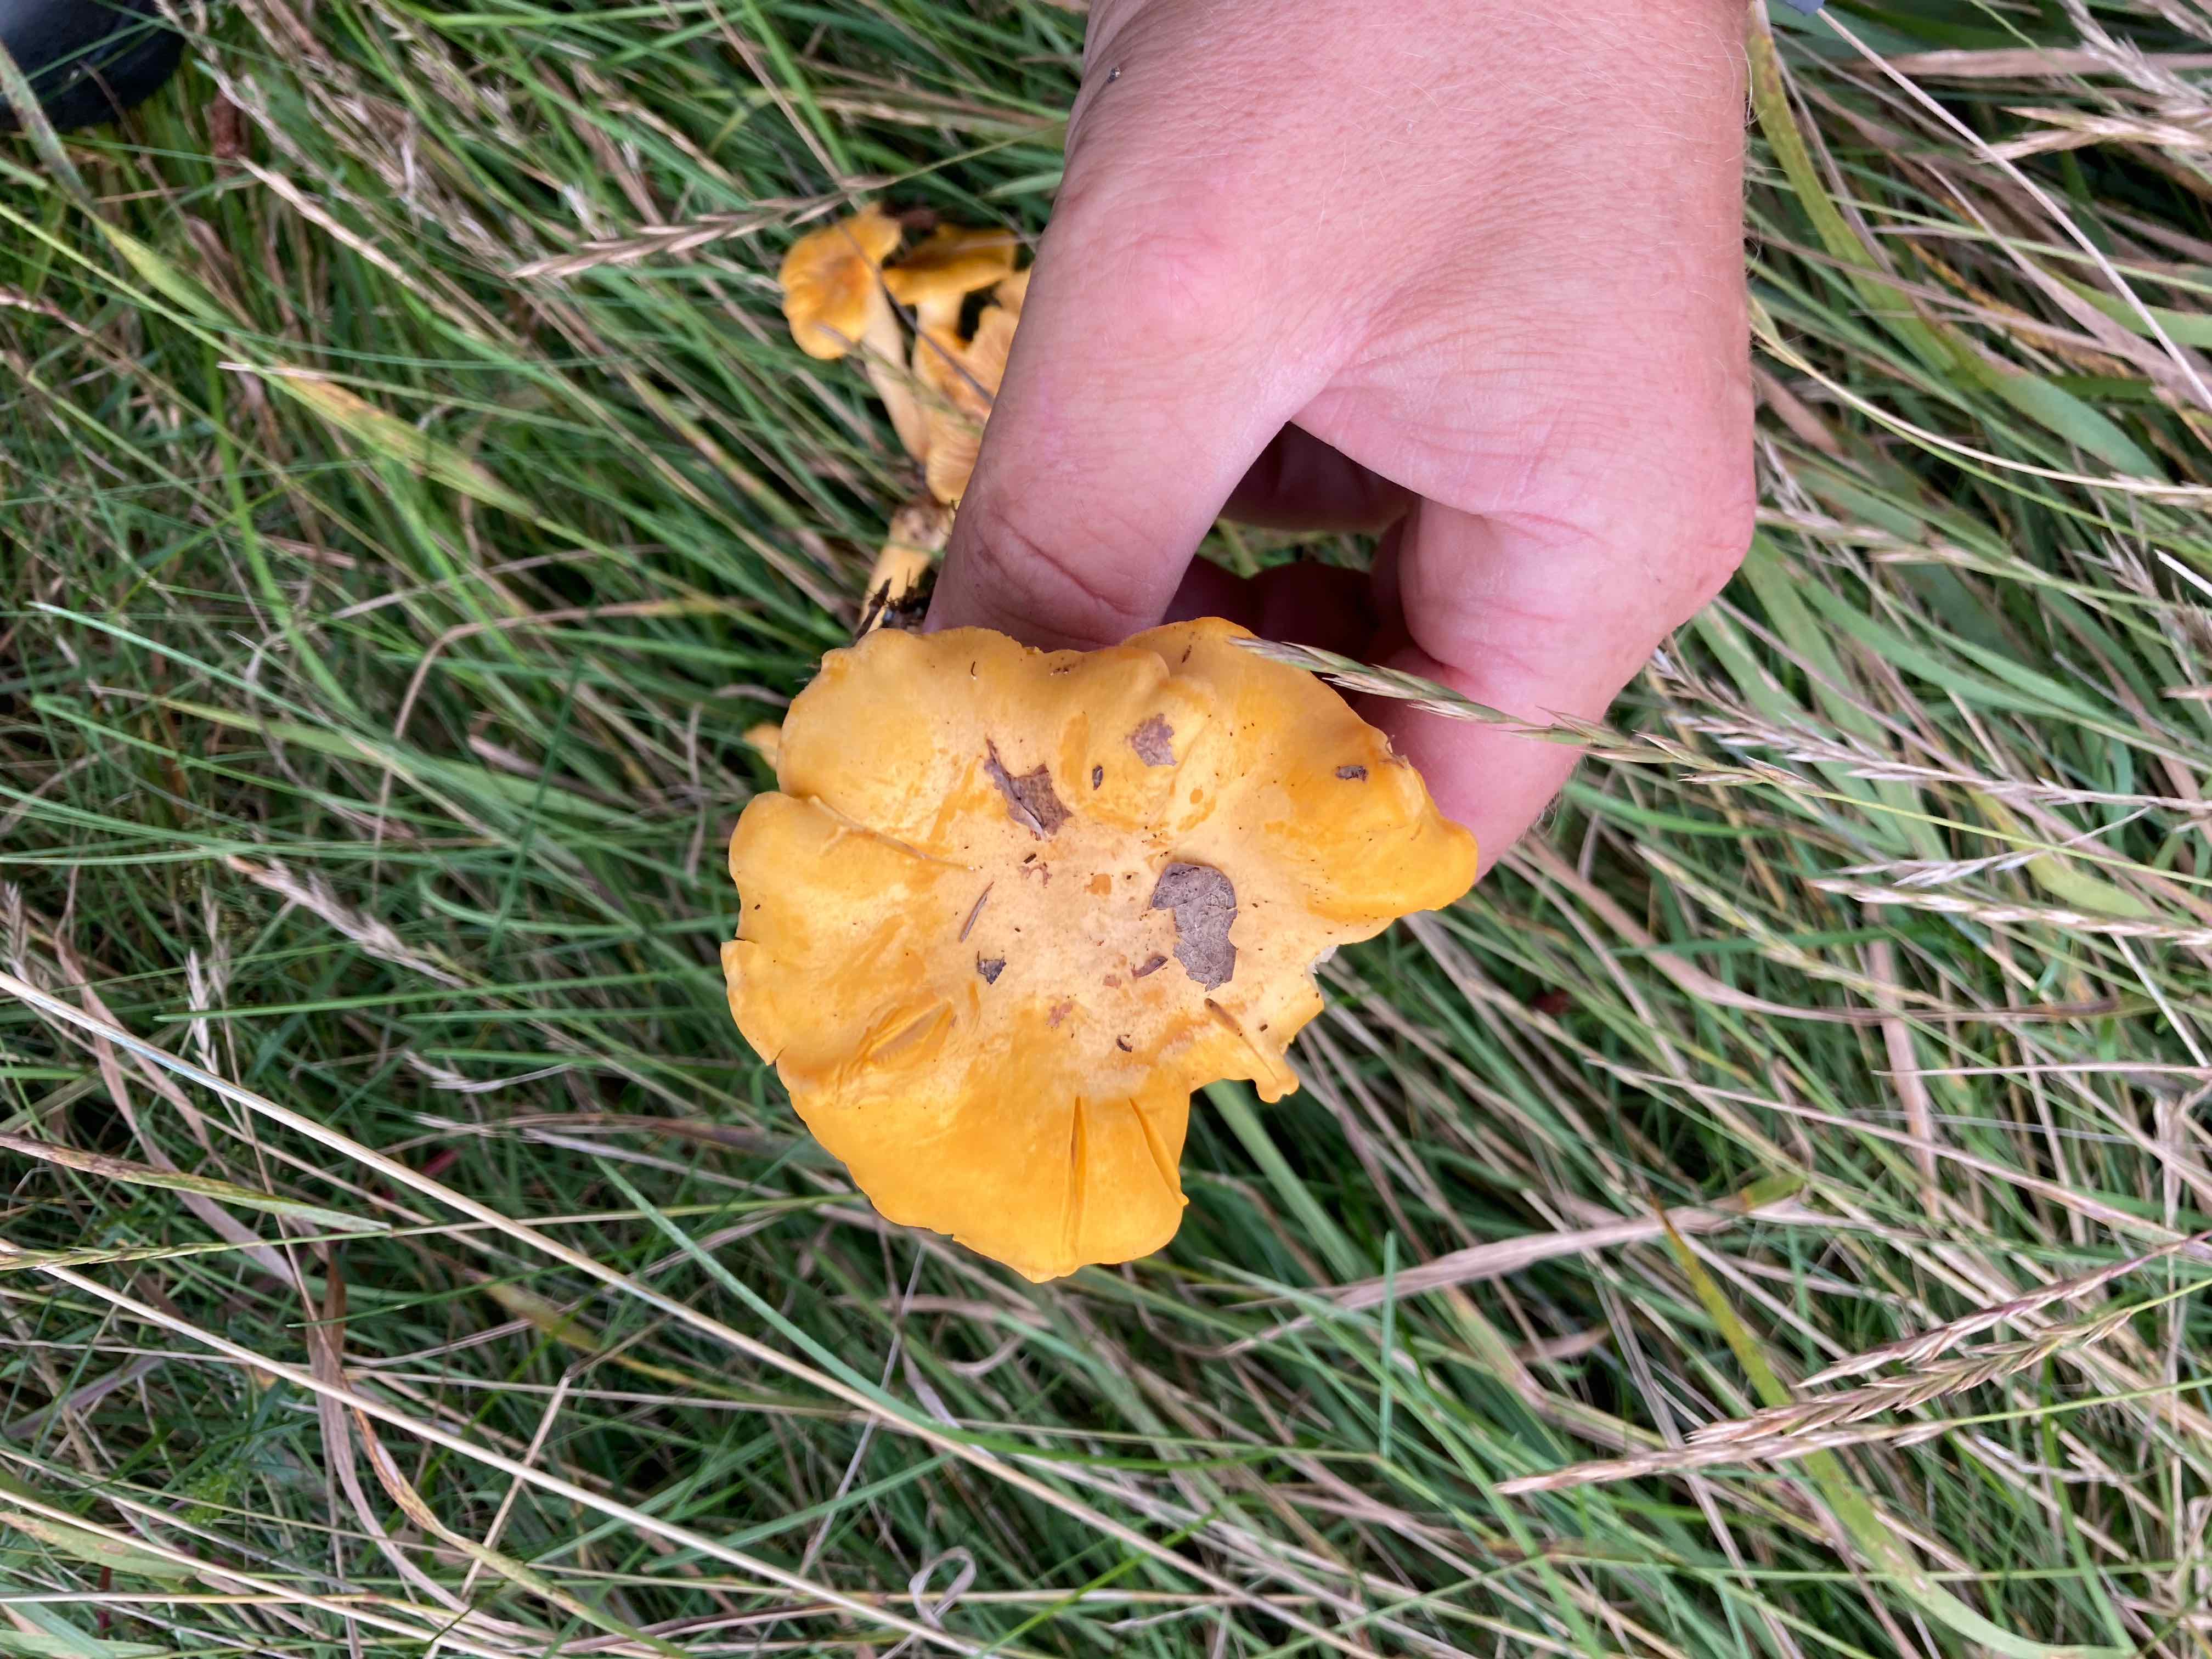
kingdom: Fungi
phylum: Basidiomycota
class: Agaricomycetes
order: Cantharellales
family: Hydnaceae
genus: Cantharellus
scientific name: Cantharellus cibarius
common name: almindelig kantarel
